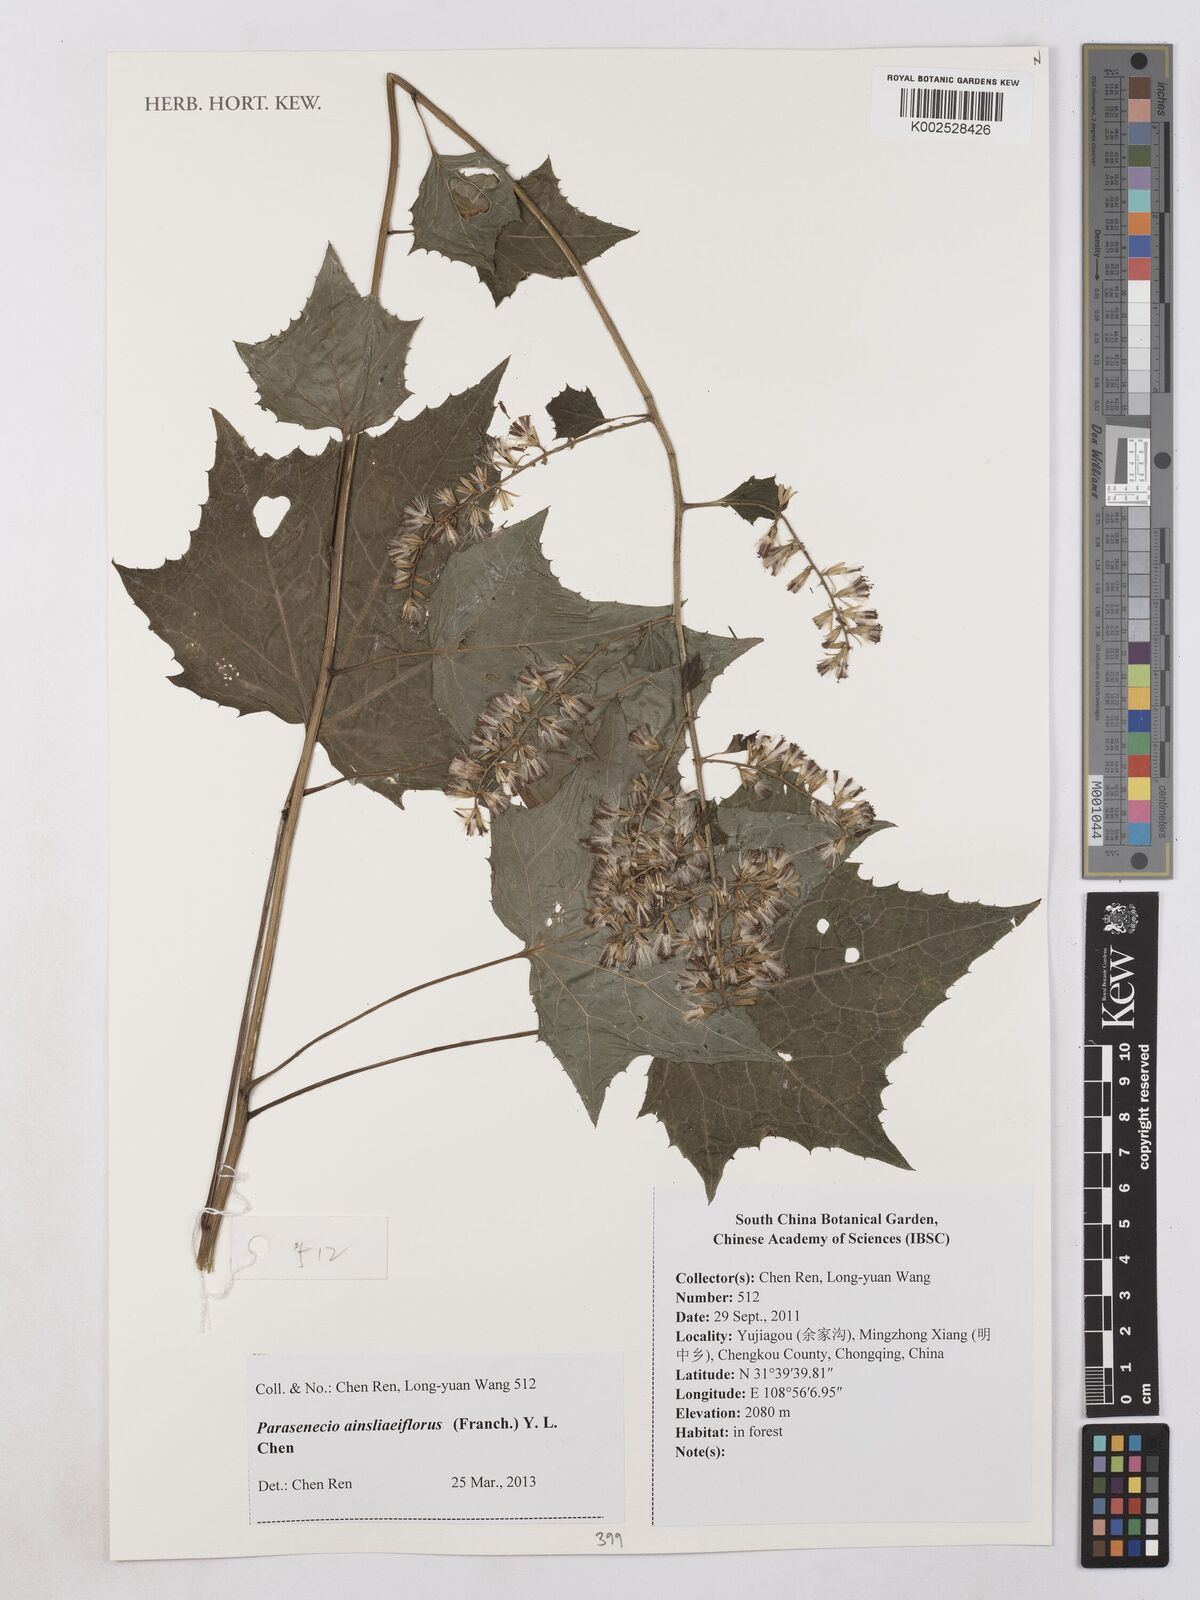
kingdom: Plantae
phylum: Tracheophyta
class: Magnoliopsida
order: Asterales
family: Asteraceae
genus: Parasenecio
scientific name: Parasenecio ainsliaeiflorus
